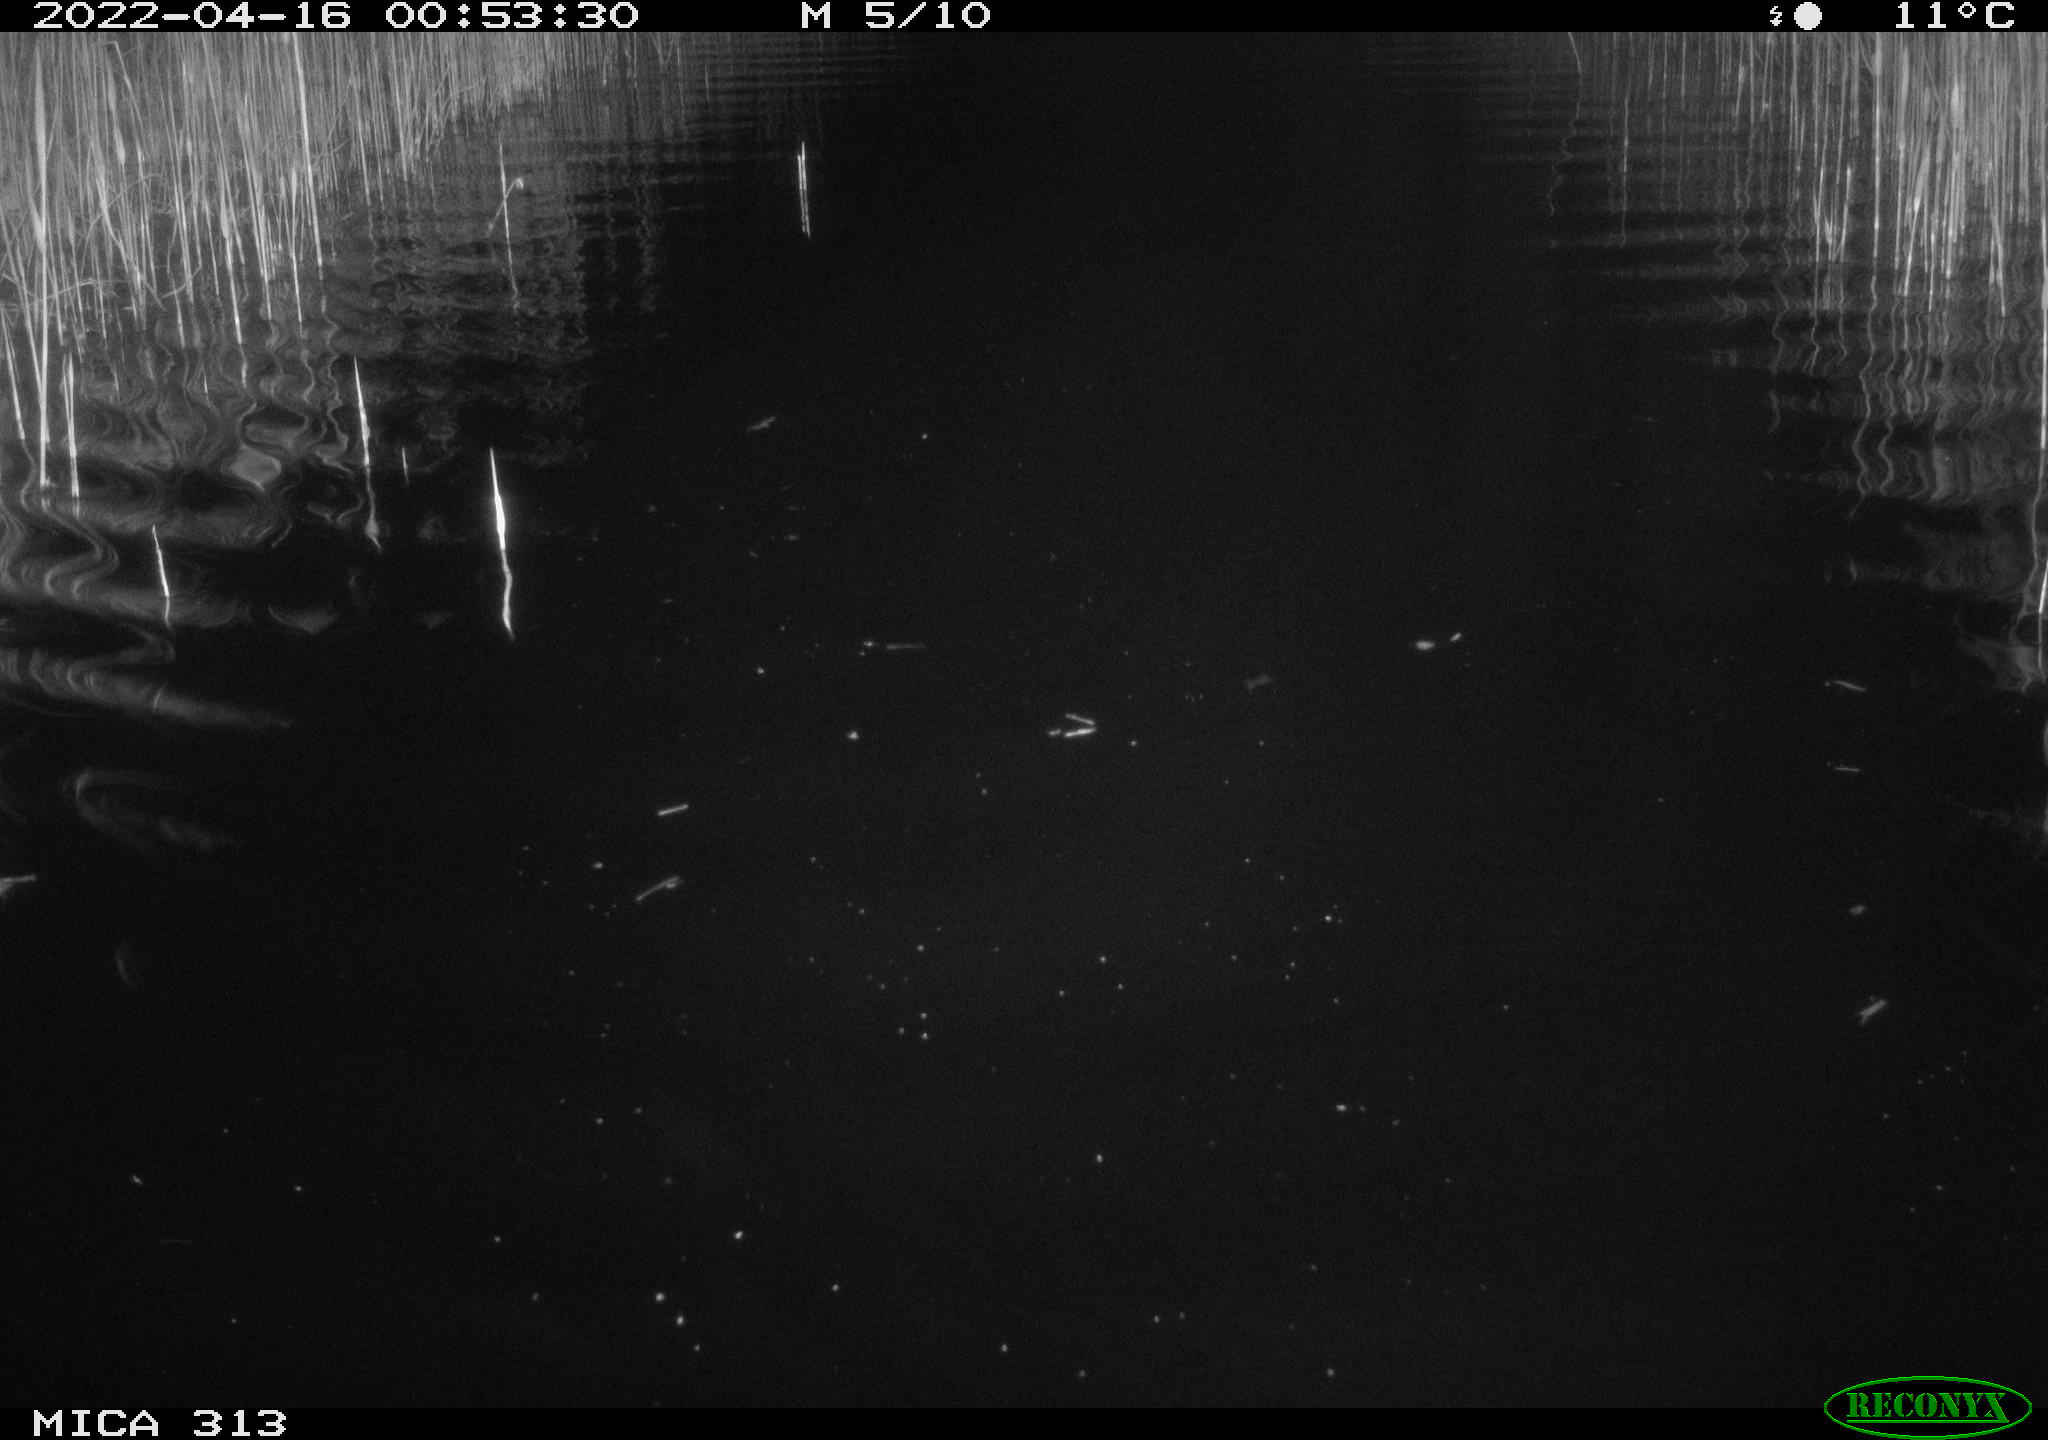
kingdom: Animalia
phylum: Chordata
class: Mammalia
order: Rodentia
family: Cricetidae
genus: Ondatra
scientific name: Ondatra zibethicus
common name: Muskrat
